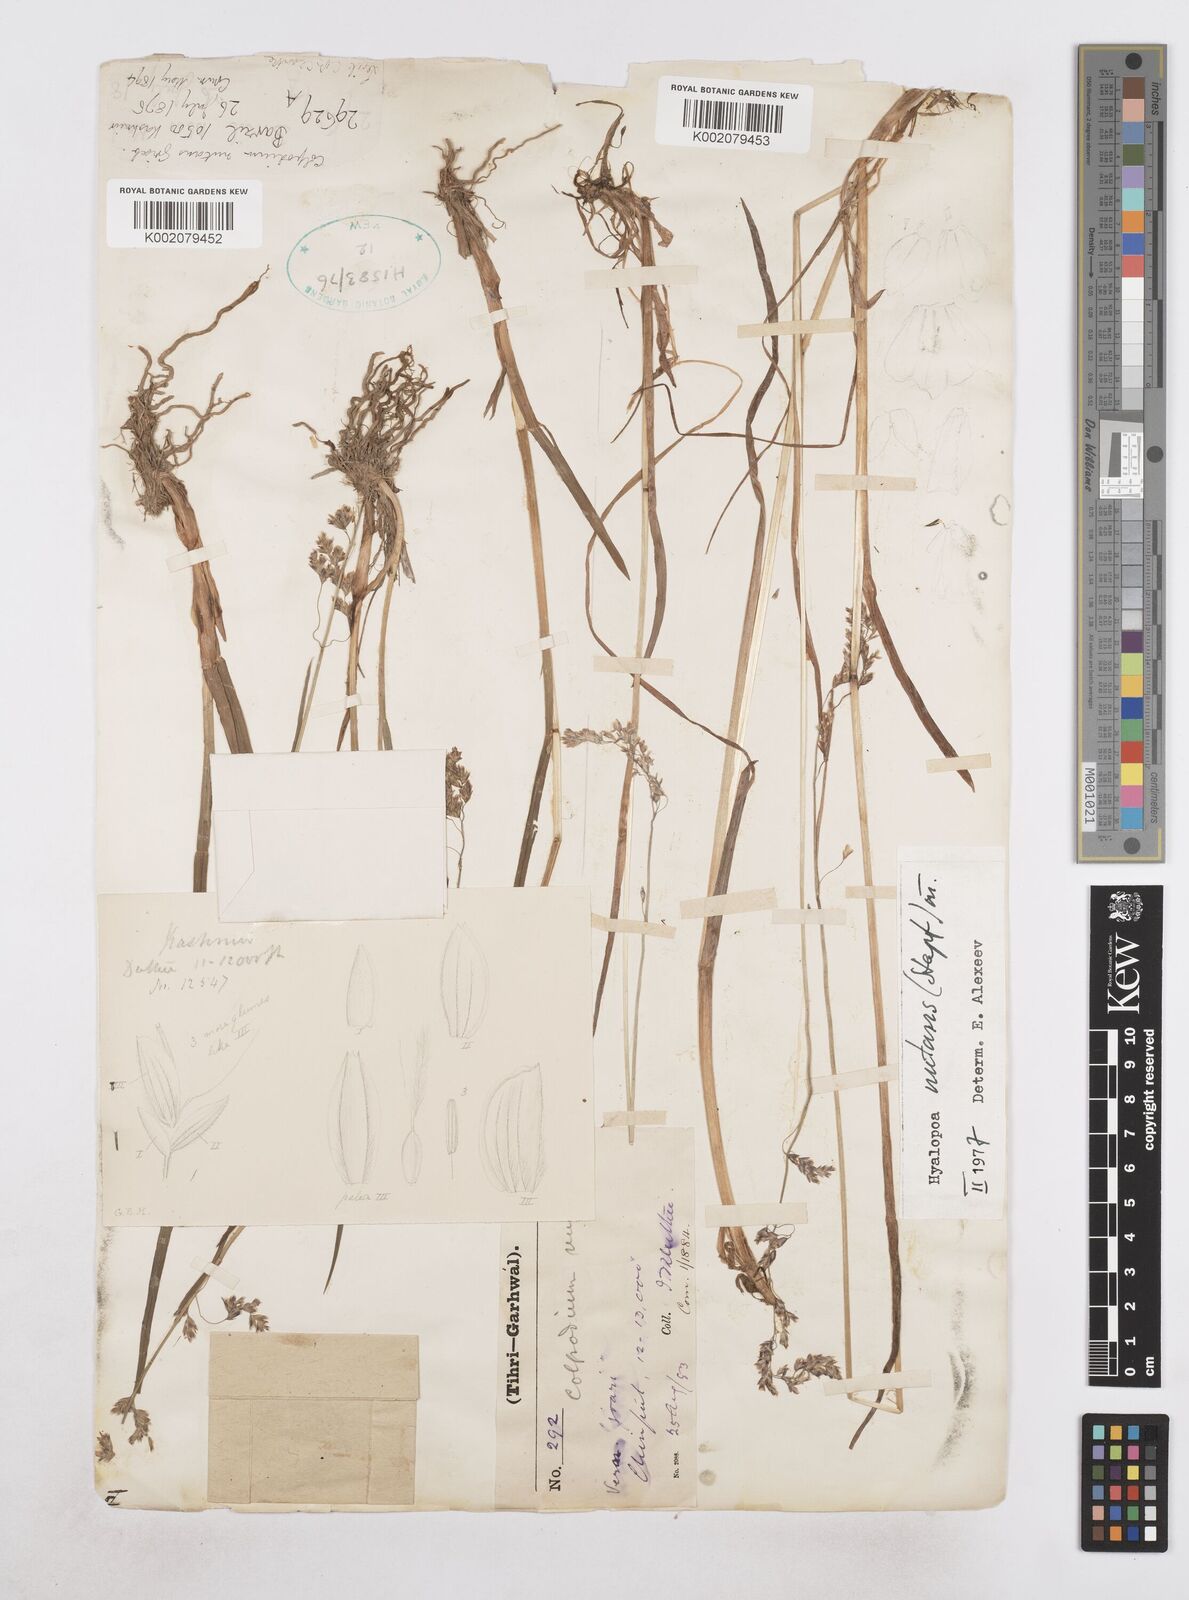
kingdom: Plantae
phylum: Tracheophyta
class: Liliopsida
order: Poales
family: Poaceae
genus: Hyalopoa
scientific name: Hyalopoa nutans
